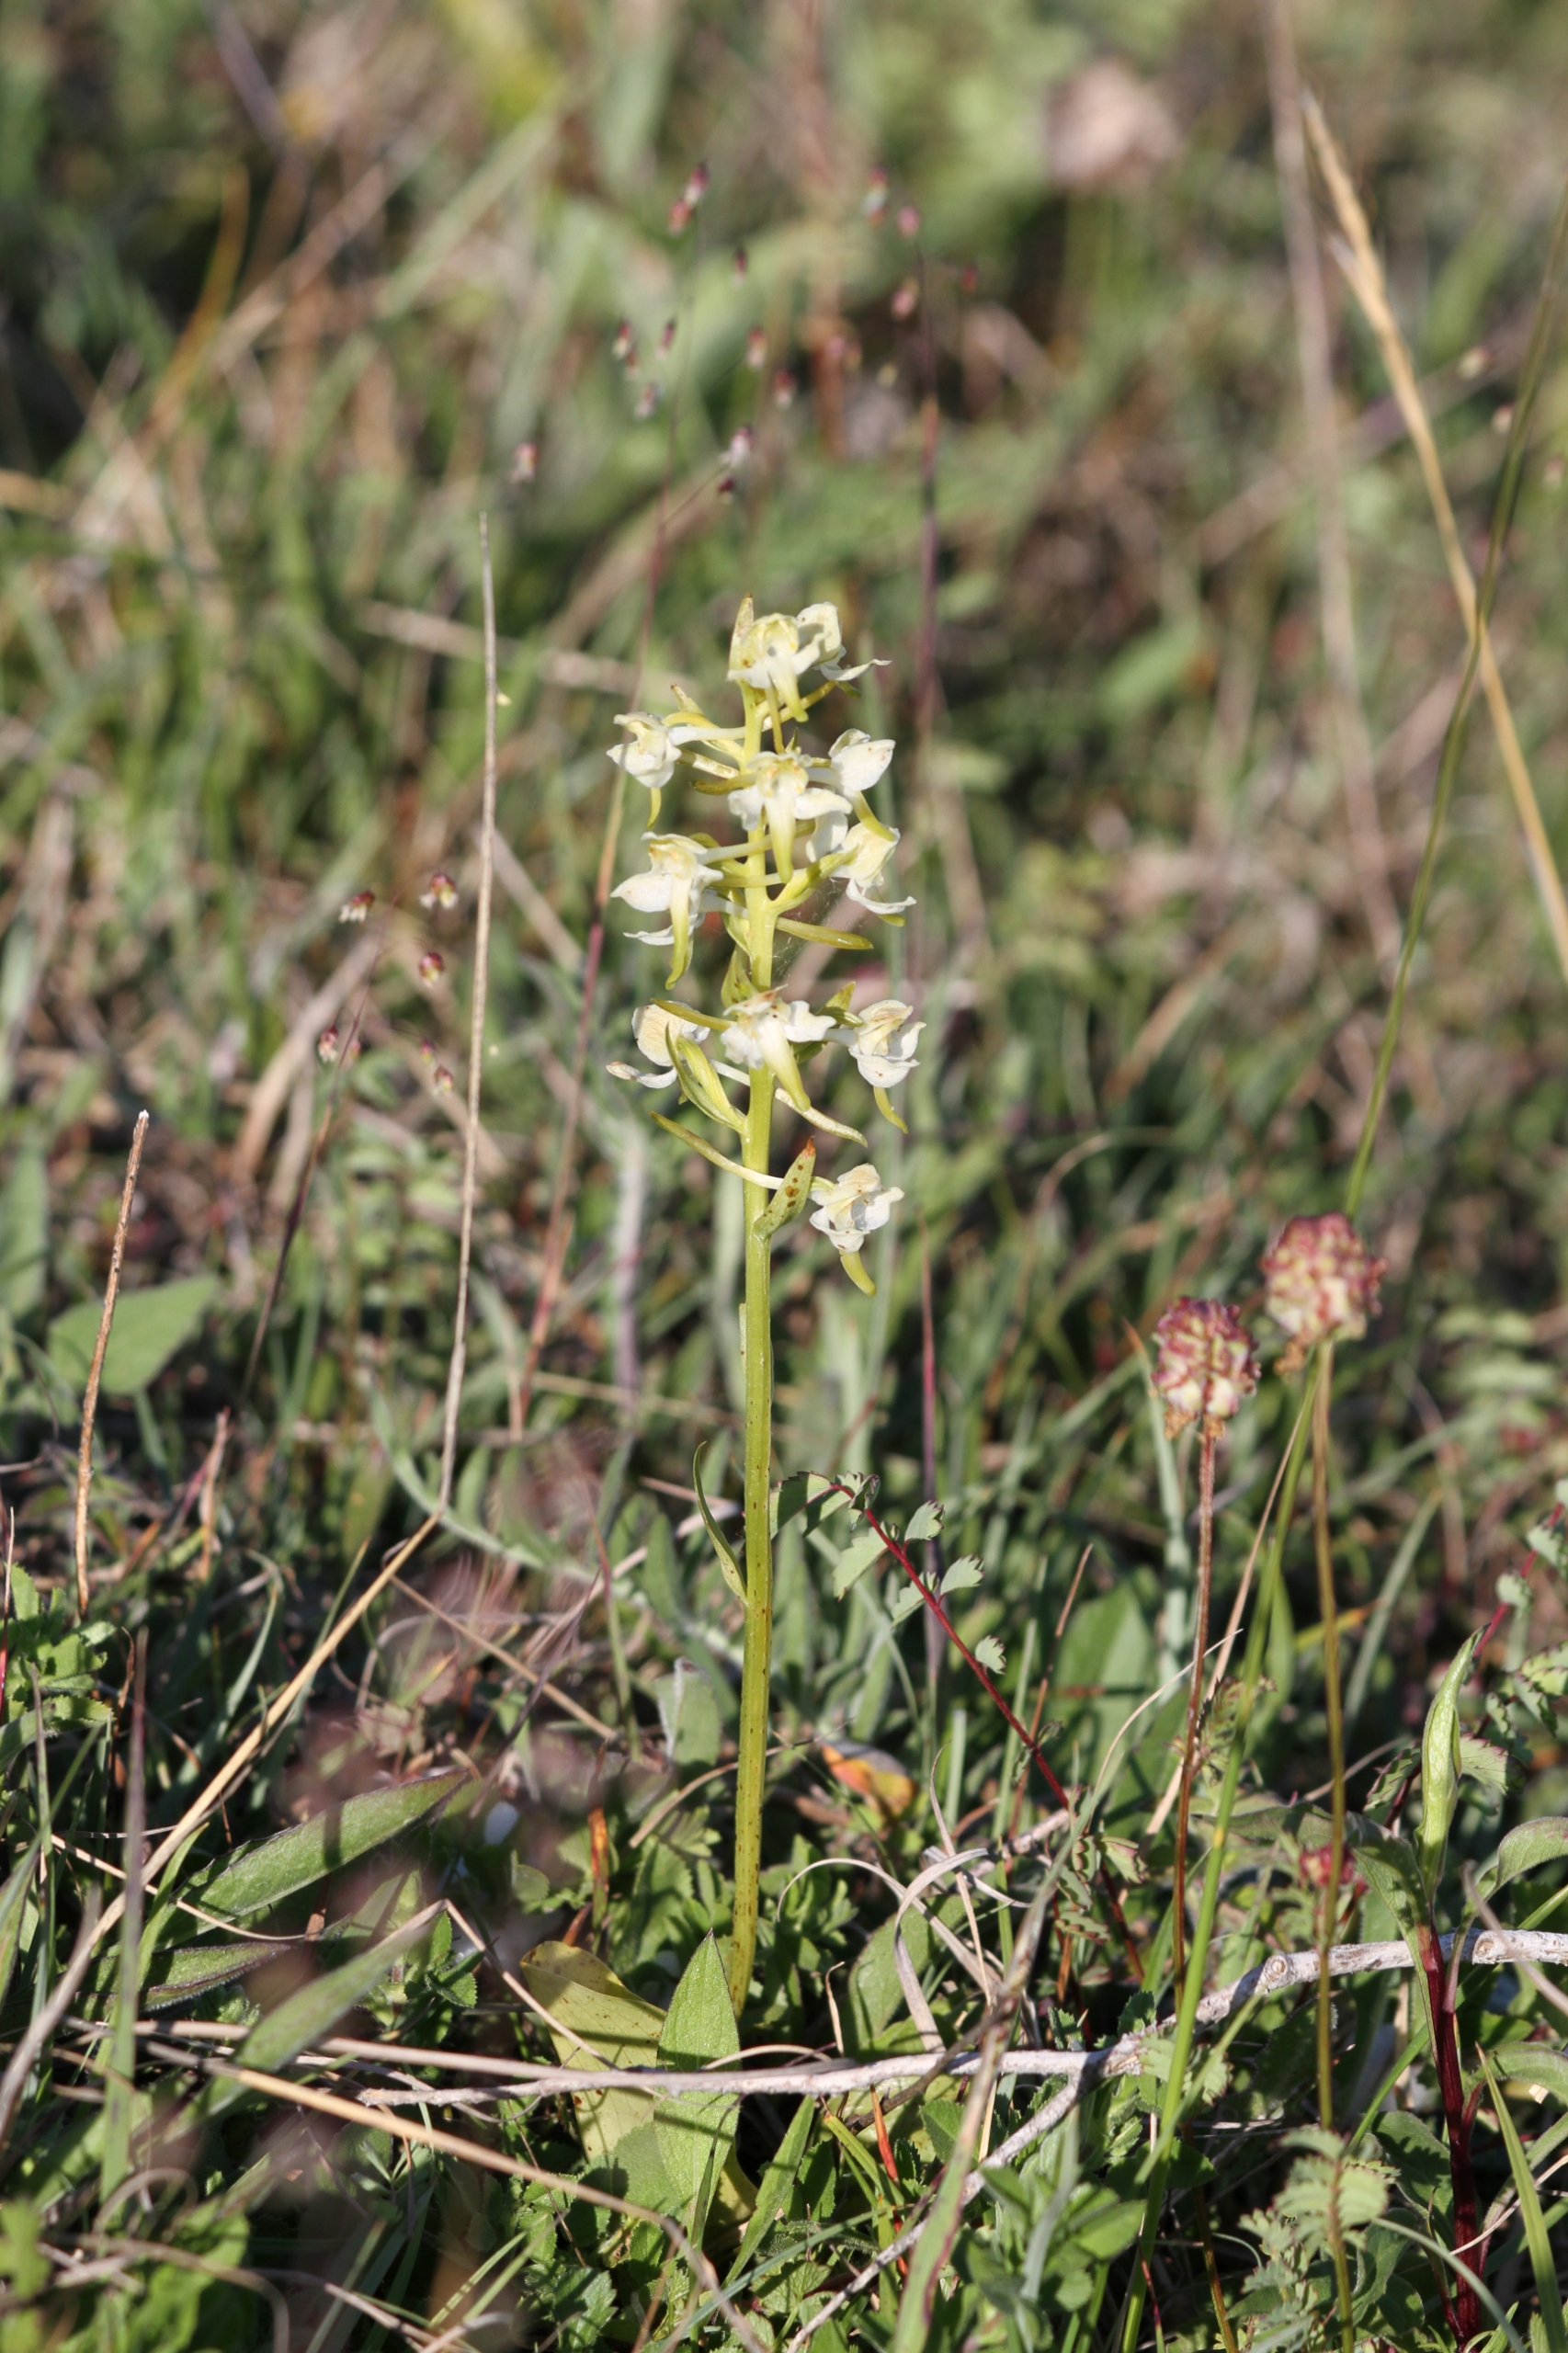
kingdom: Plantae
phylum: Tracheophyta
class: Liliopsida
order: Asparagales
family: Orchidaceae
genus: Platanthera
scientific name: Platanthera chlorantha
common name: Skov-gøgelilje
